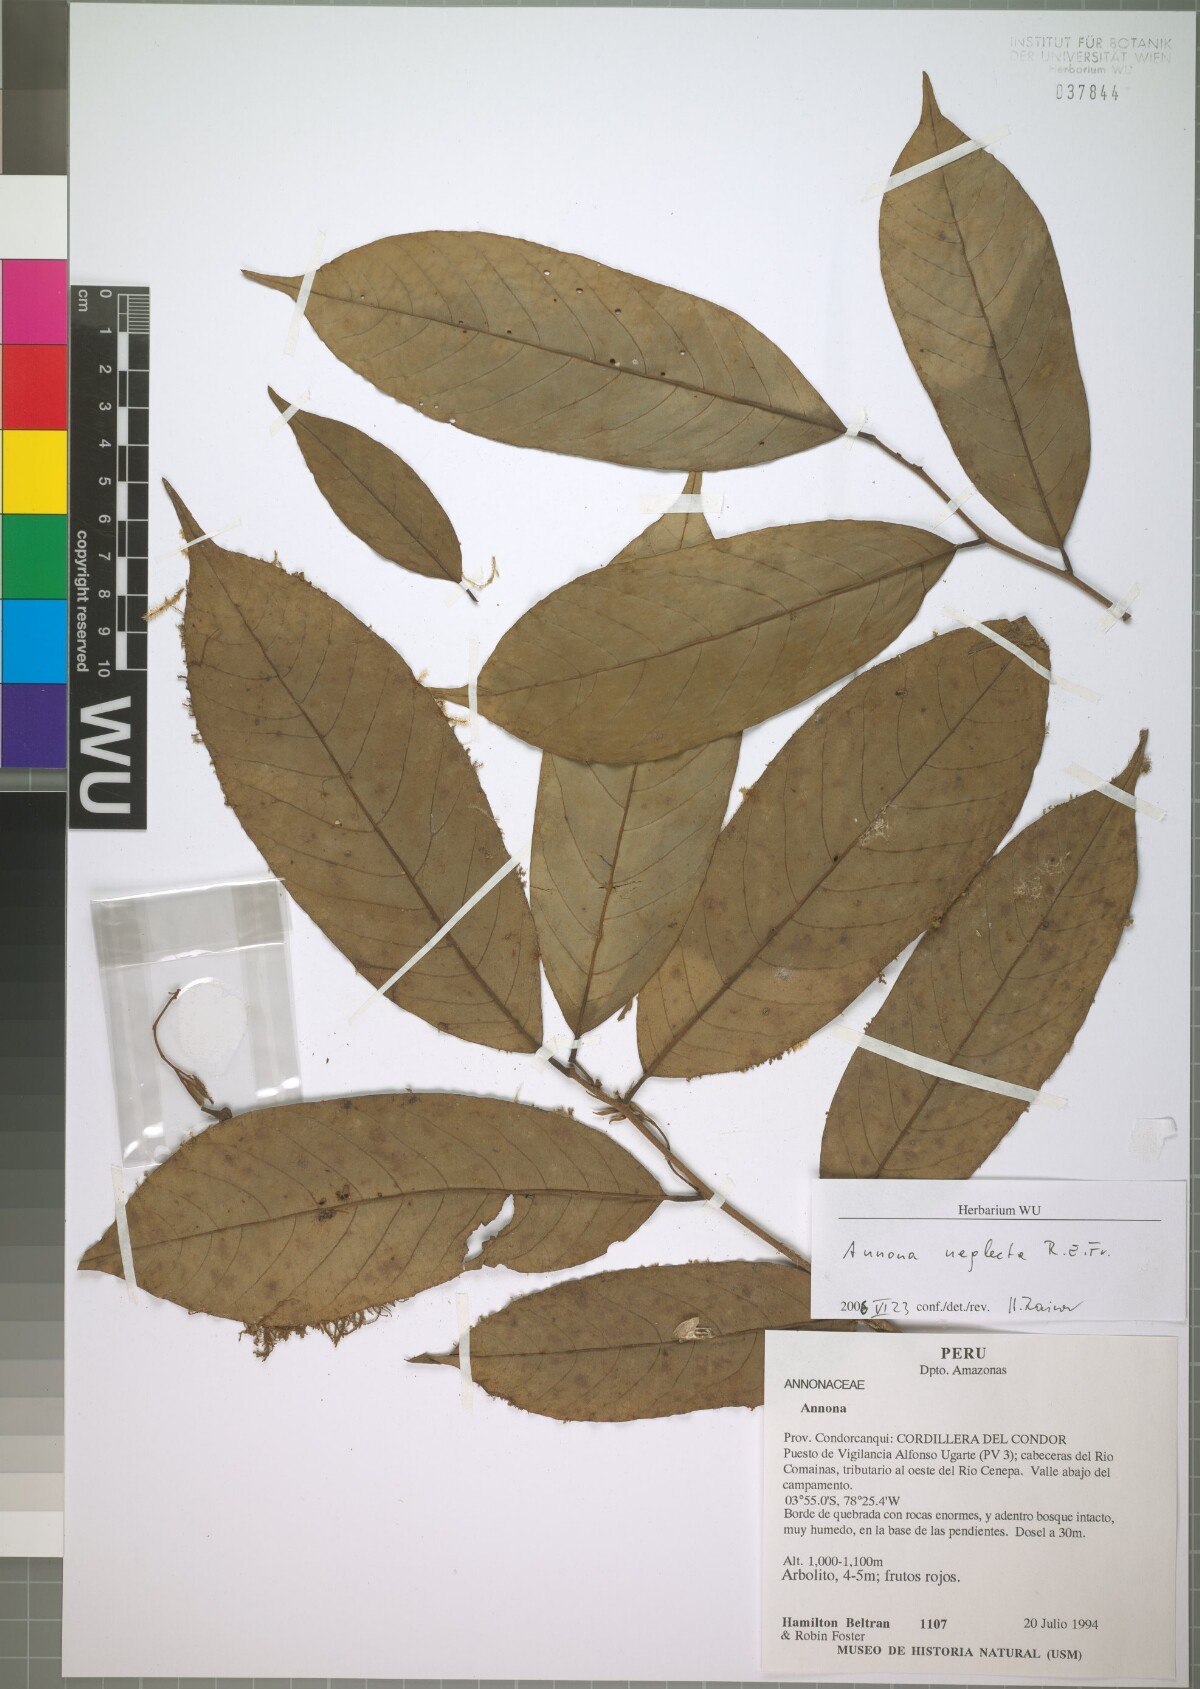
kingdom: Plantae
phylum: Tracheophyta
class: Magnoliopsida
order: Magnoliales
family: Annonaceae
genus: Annona
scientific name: Annona neglecta
